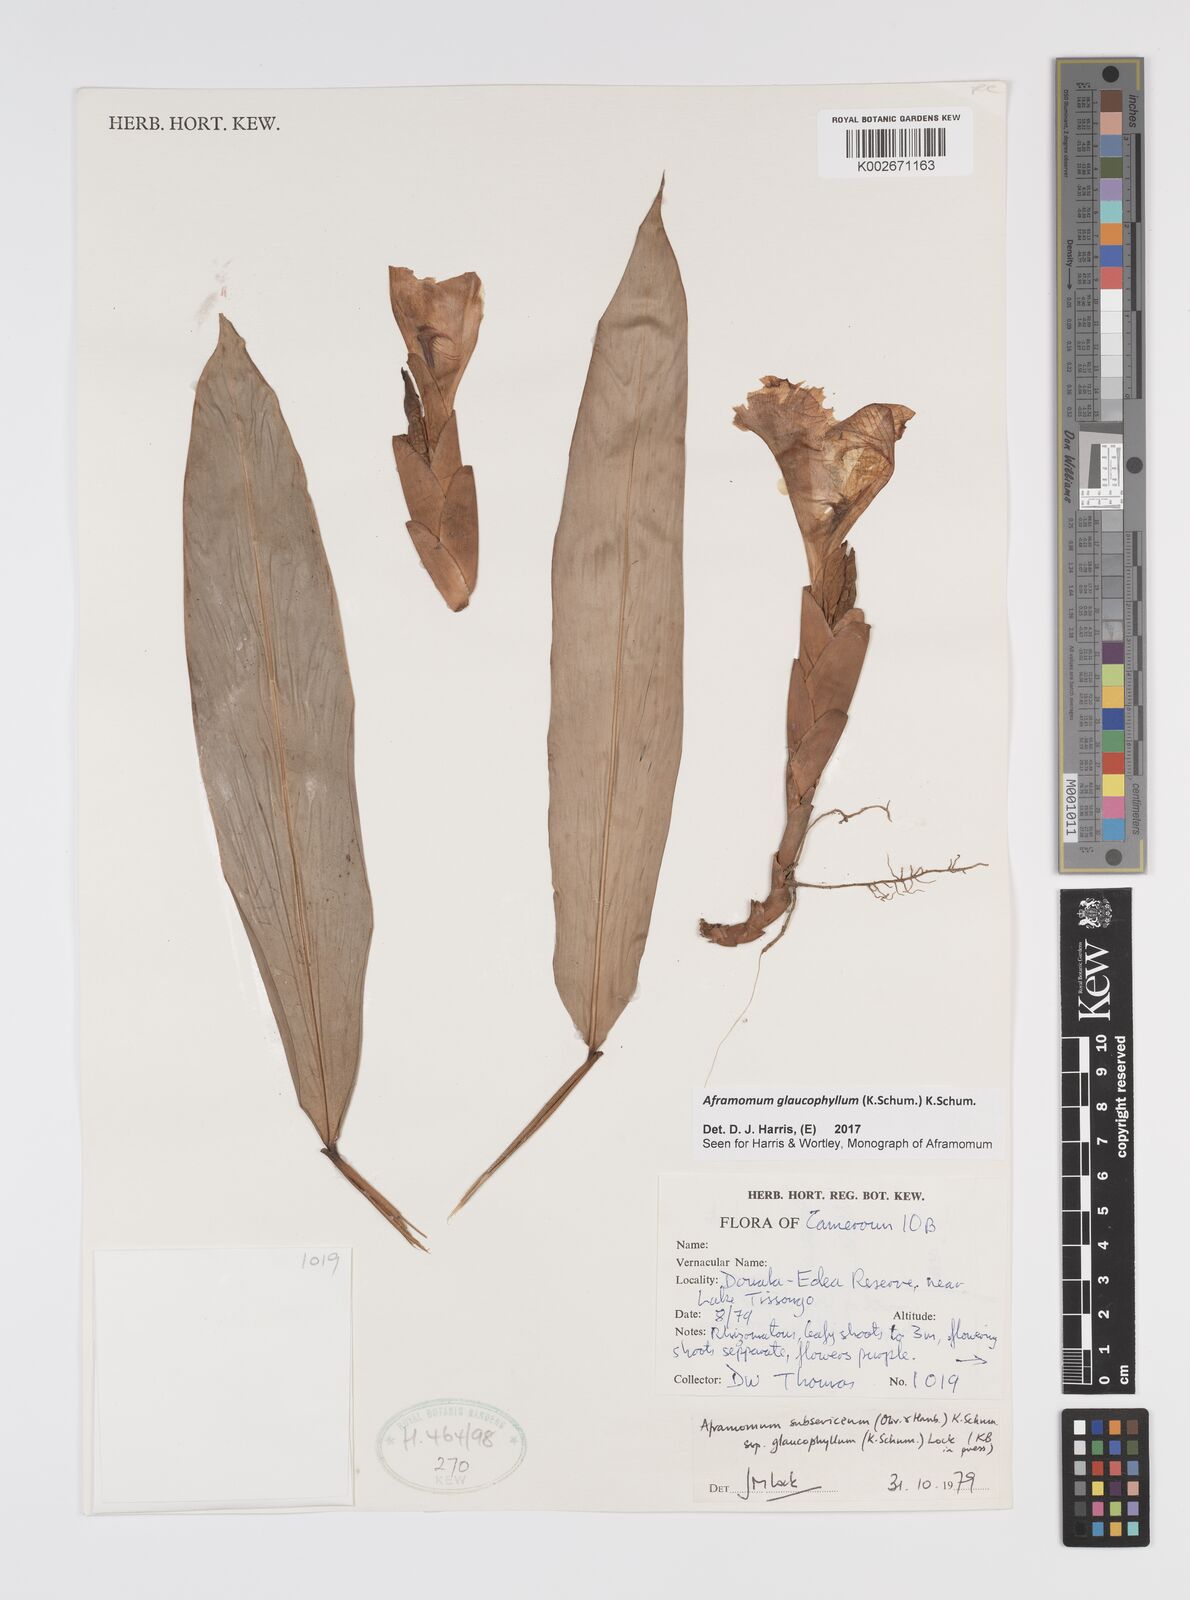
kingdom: Plantae
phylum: Tracheophyta
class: Liliopsida
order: Zingiberales
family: Zingiberaceae
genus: Aframomum
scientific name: Aframomum glaucophyllum
